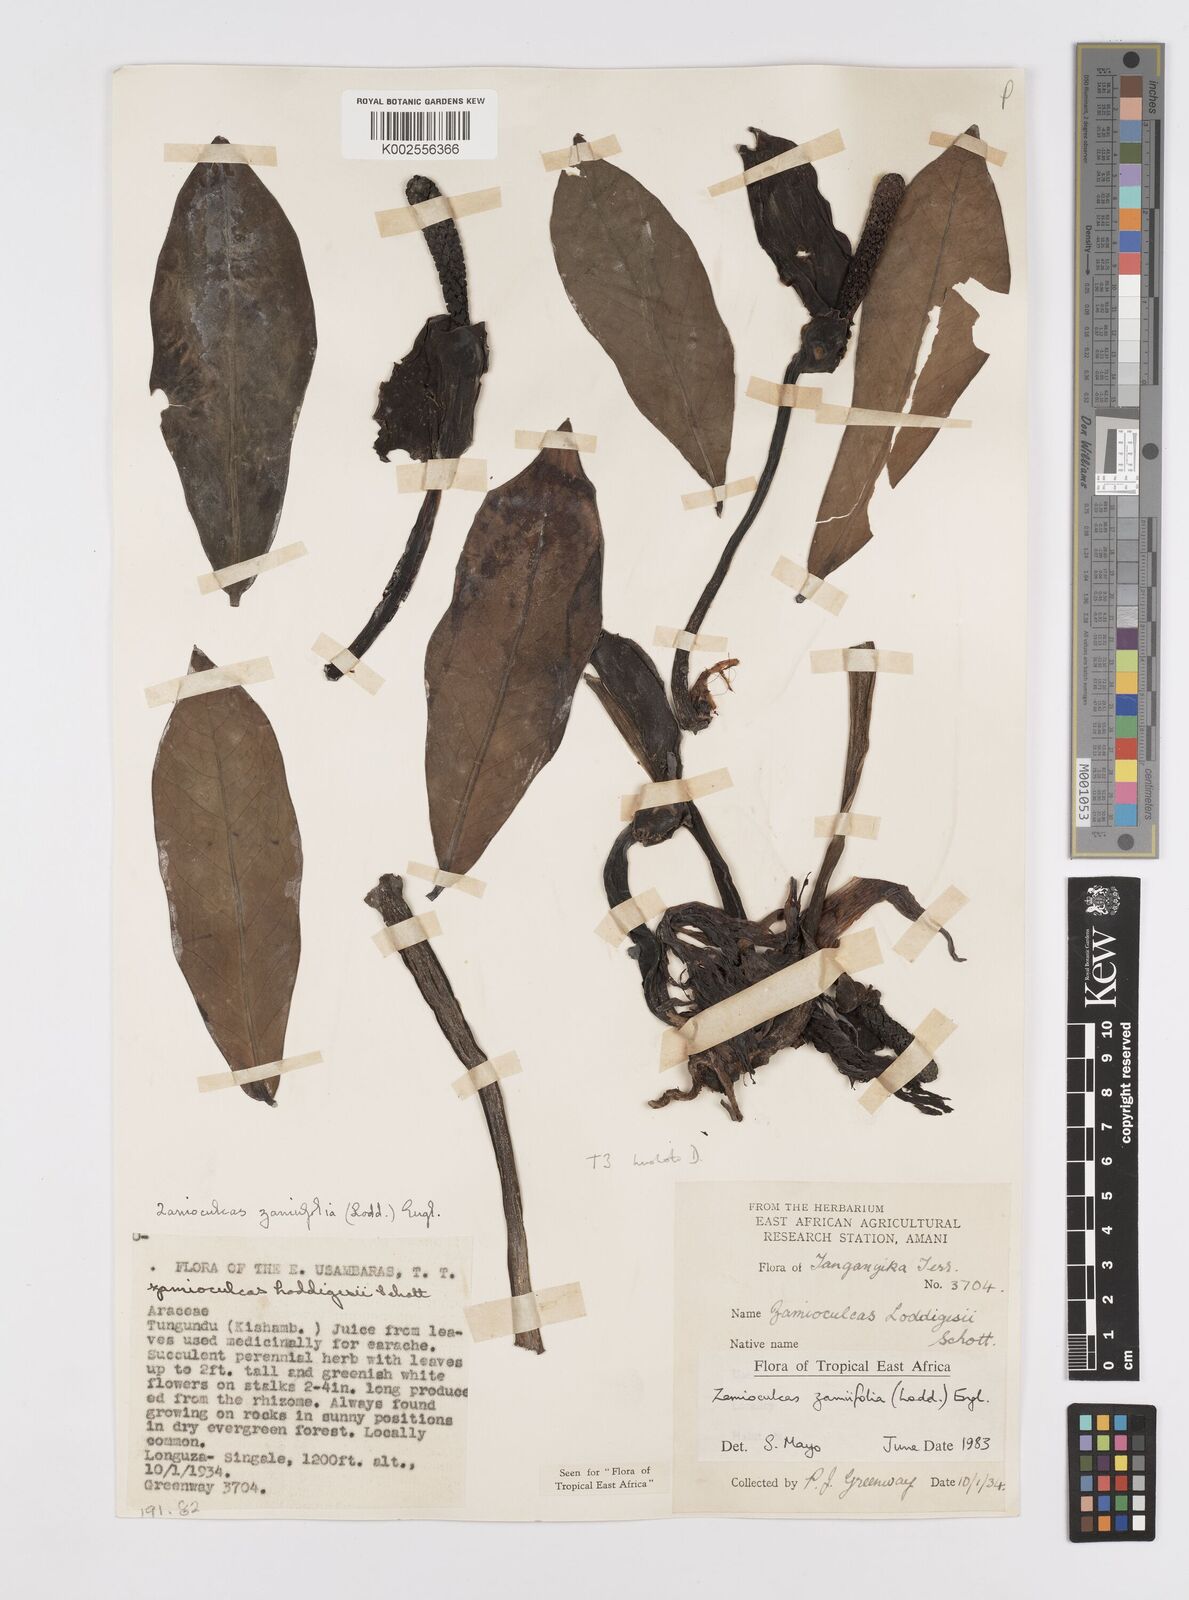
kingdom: Plantae
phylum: Tracheophyta
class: Liliopsida
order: Alismatales
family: Araceae
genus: Zamioculcas
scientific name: Zamioculcas zamiifolia
